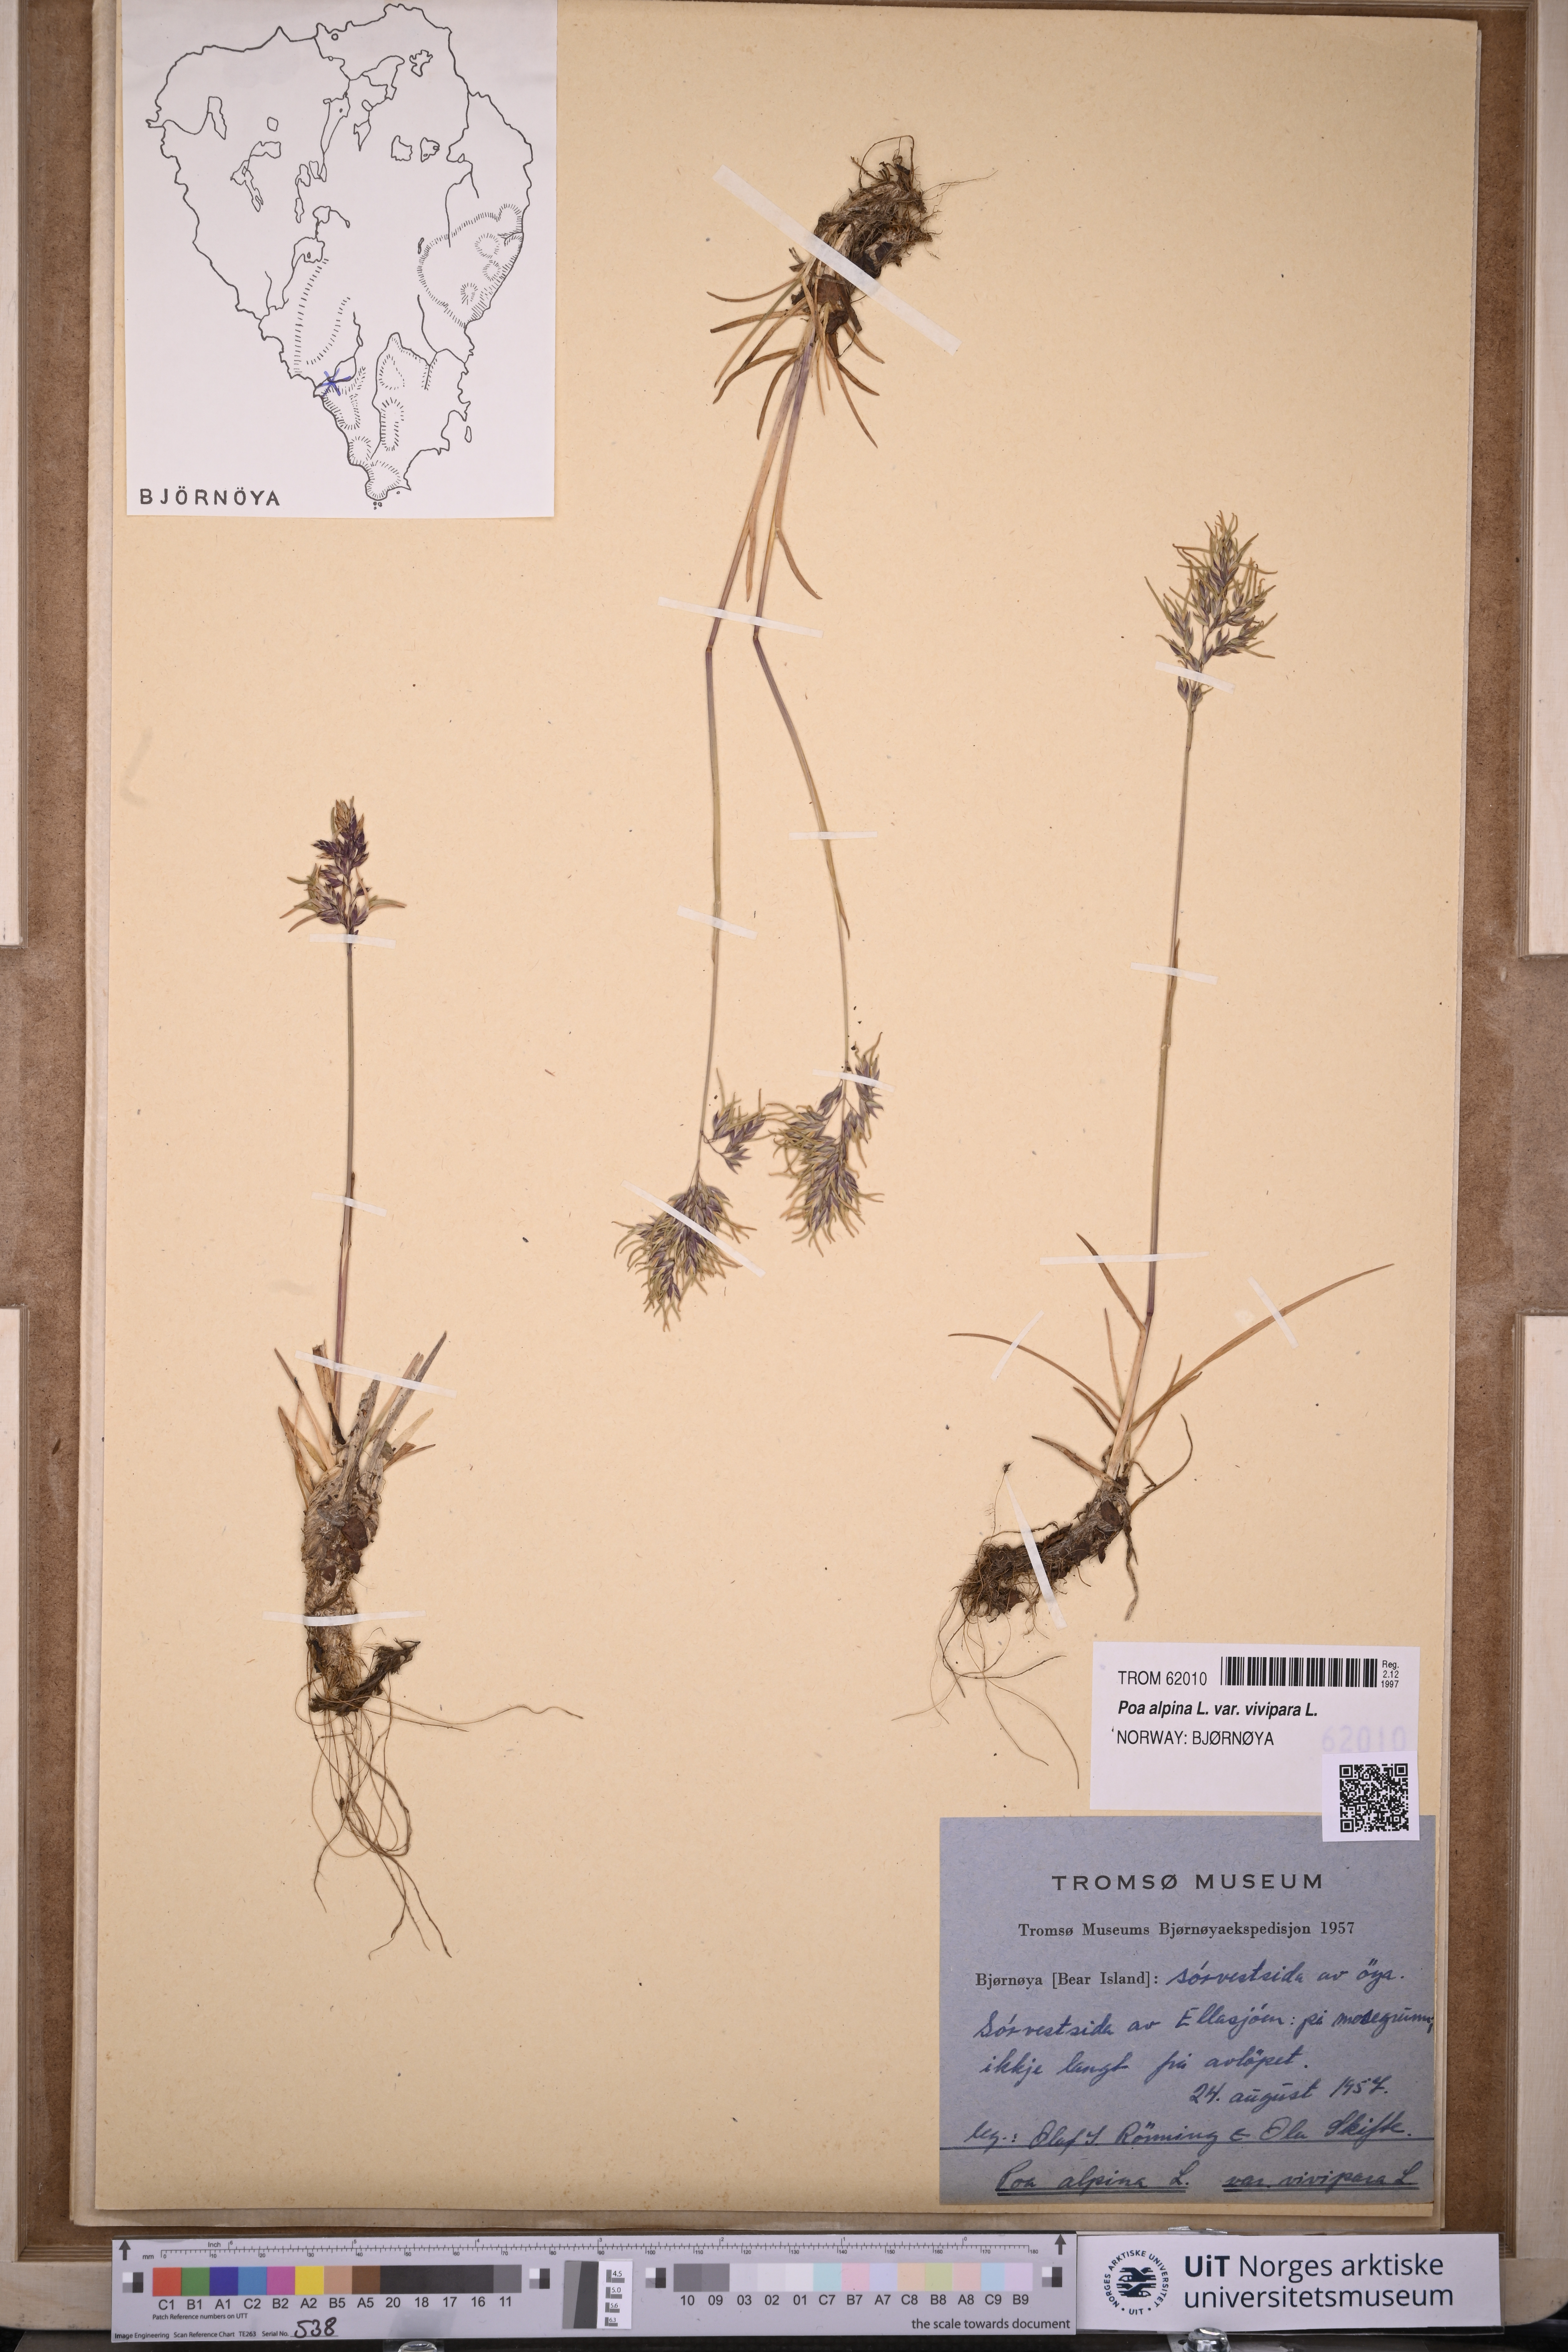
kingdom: Plantae
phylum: Tracheophyta
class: Liliopsida
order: Poales
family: Poaceae
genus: Poa
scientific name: Poa alpina
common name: Alpine bluegrass
